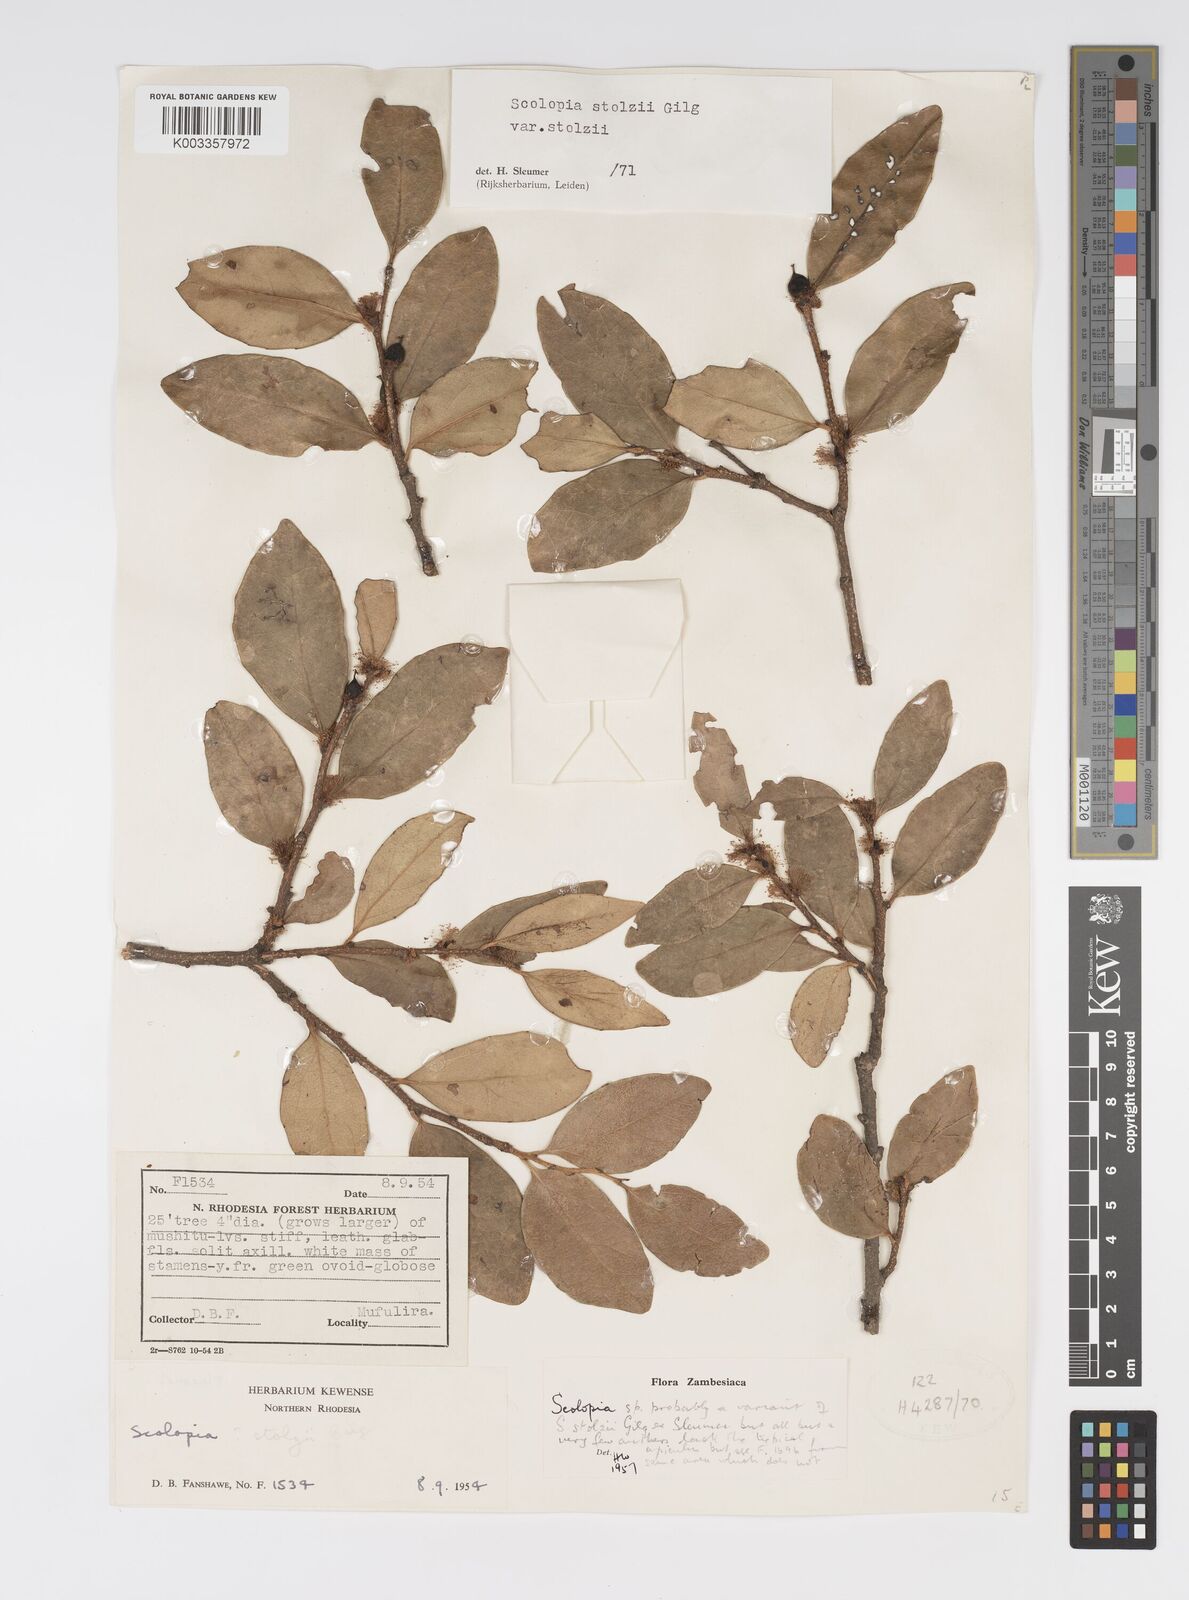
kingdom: Plantae
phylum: Tracheophyta
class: Magnoliopsida
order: Malpighiales
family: Salicaceae
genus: Scolopia
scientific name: Scolopia stolzii
